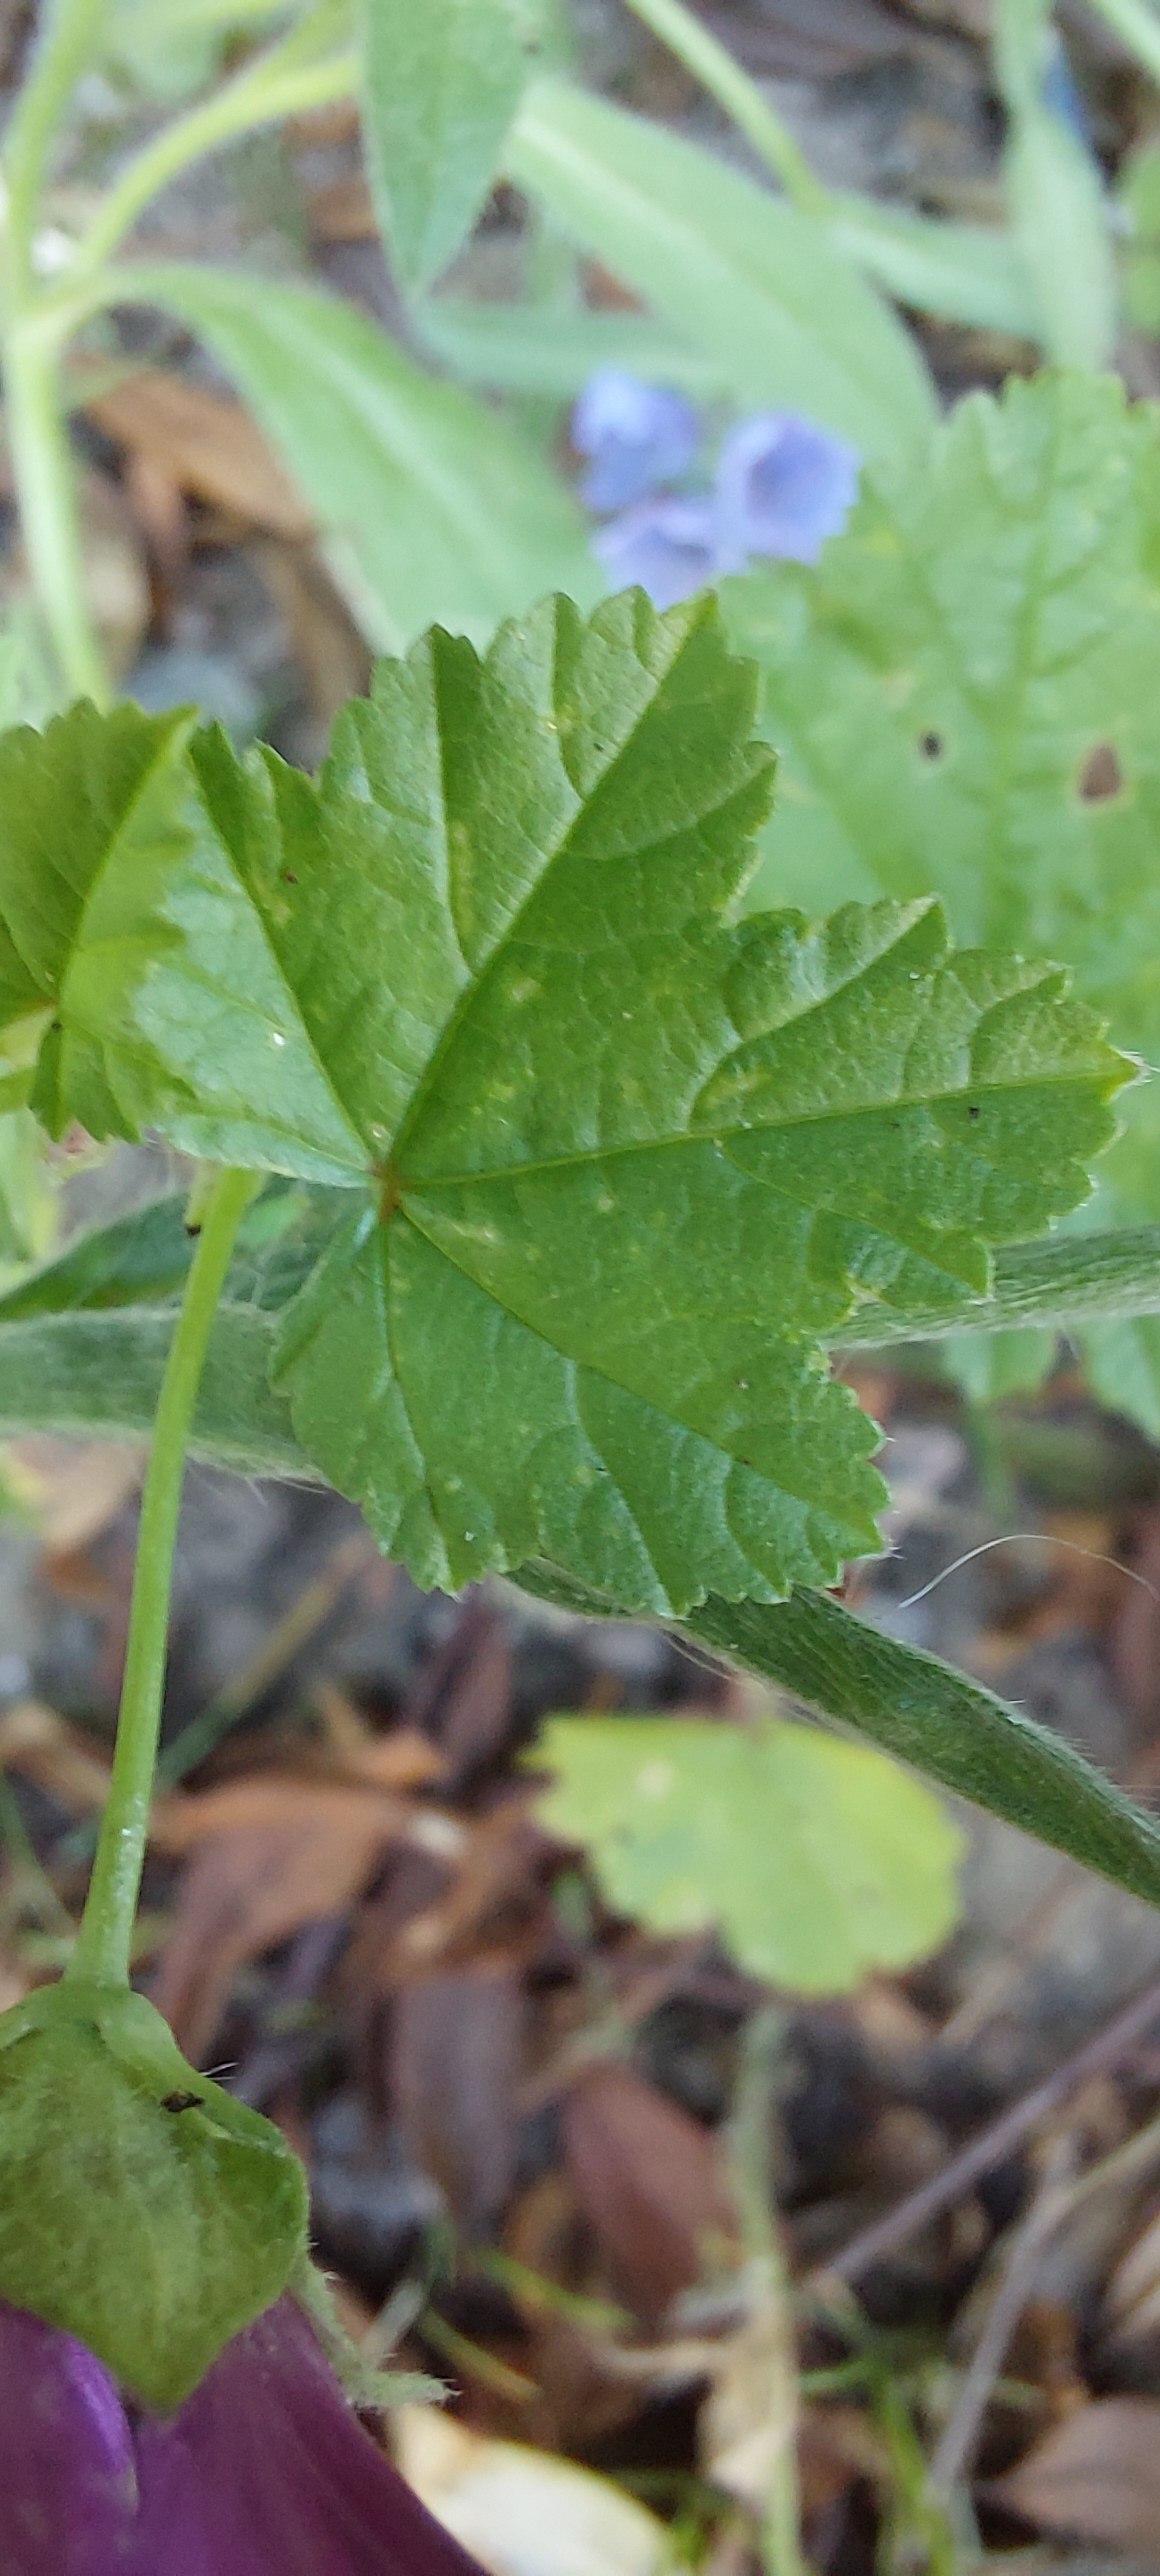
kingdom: Plantae
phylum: Tracheophyta
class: Magnoliopsida
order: Malvales
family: Malvaceae
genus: Malva
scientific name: Malva sylvestris
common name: Stor katost
